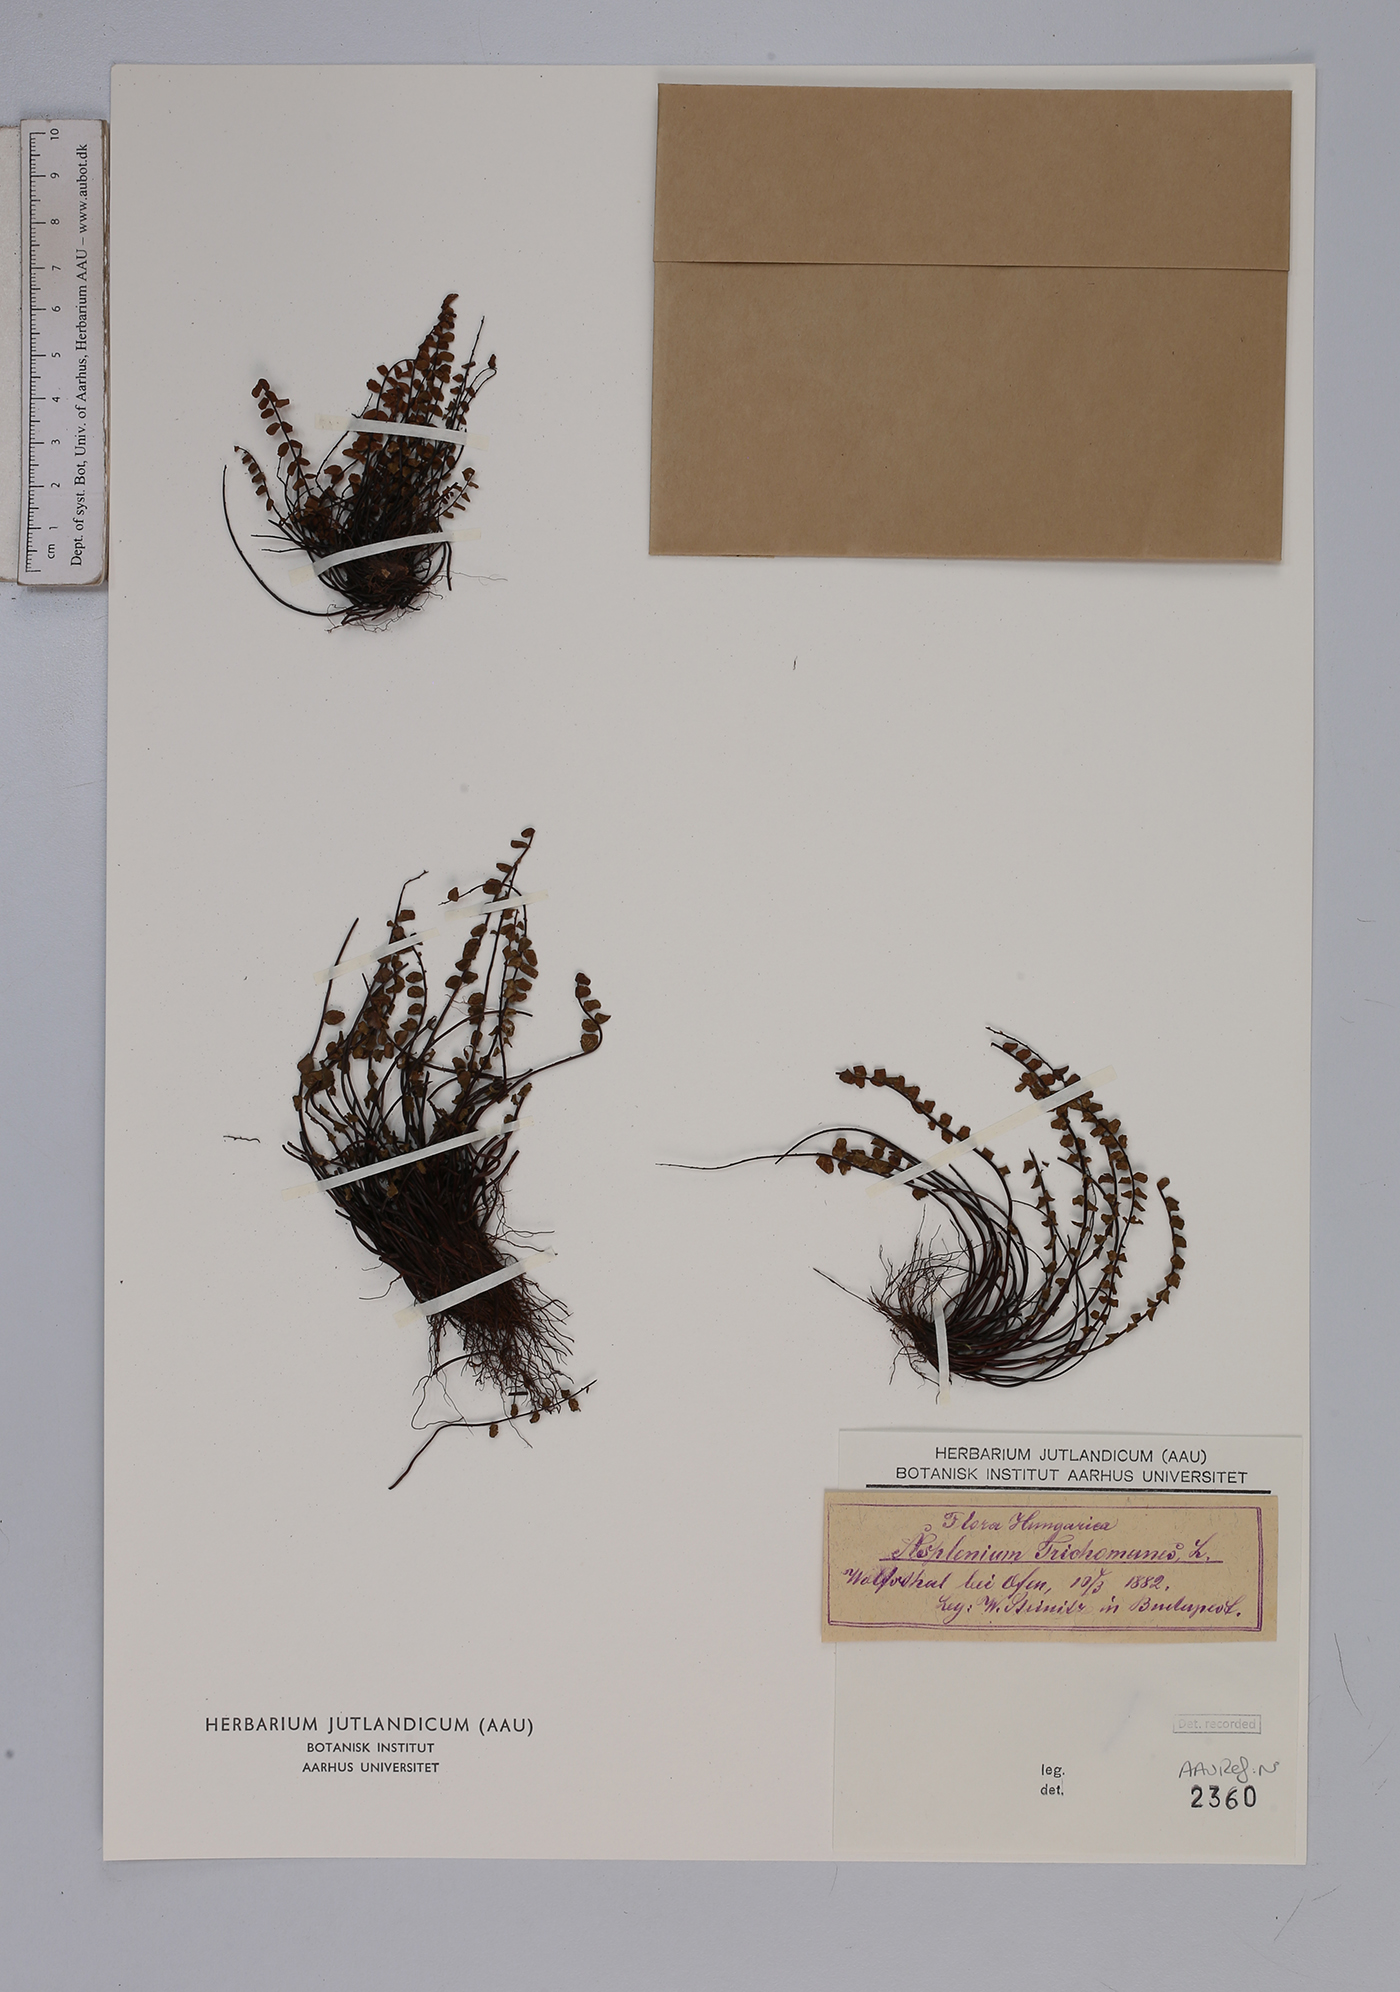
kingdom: Plantae
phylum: Tracheophyta
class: Polypodiopsida
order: Polypodiales
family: Aspleniaceae
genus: Asplenium
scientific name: Asplenium trichomanes
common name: Maidenhair spleenwort
